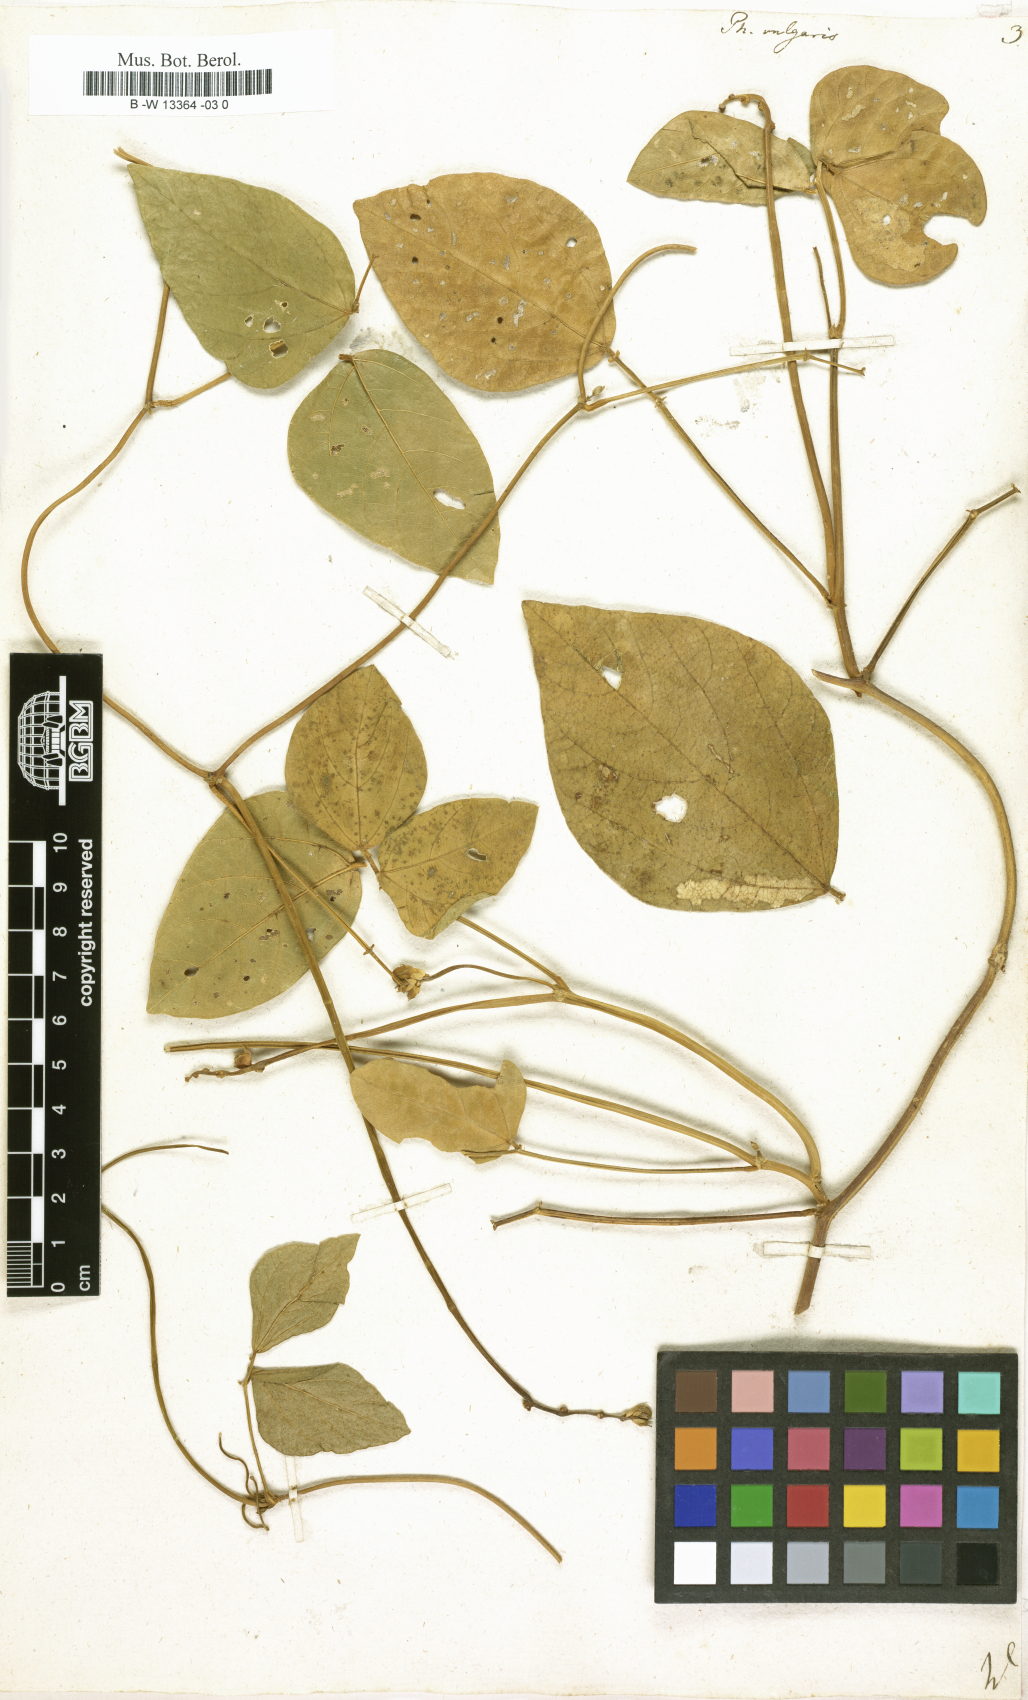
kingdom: Plantae
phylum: Tracheophyta
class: Magnoliopsida
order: Fabales
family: Fabaceae
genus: Phaseolus
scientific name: Phaseolus vulgaris
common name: Bean
